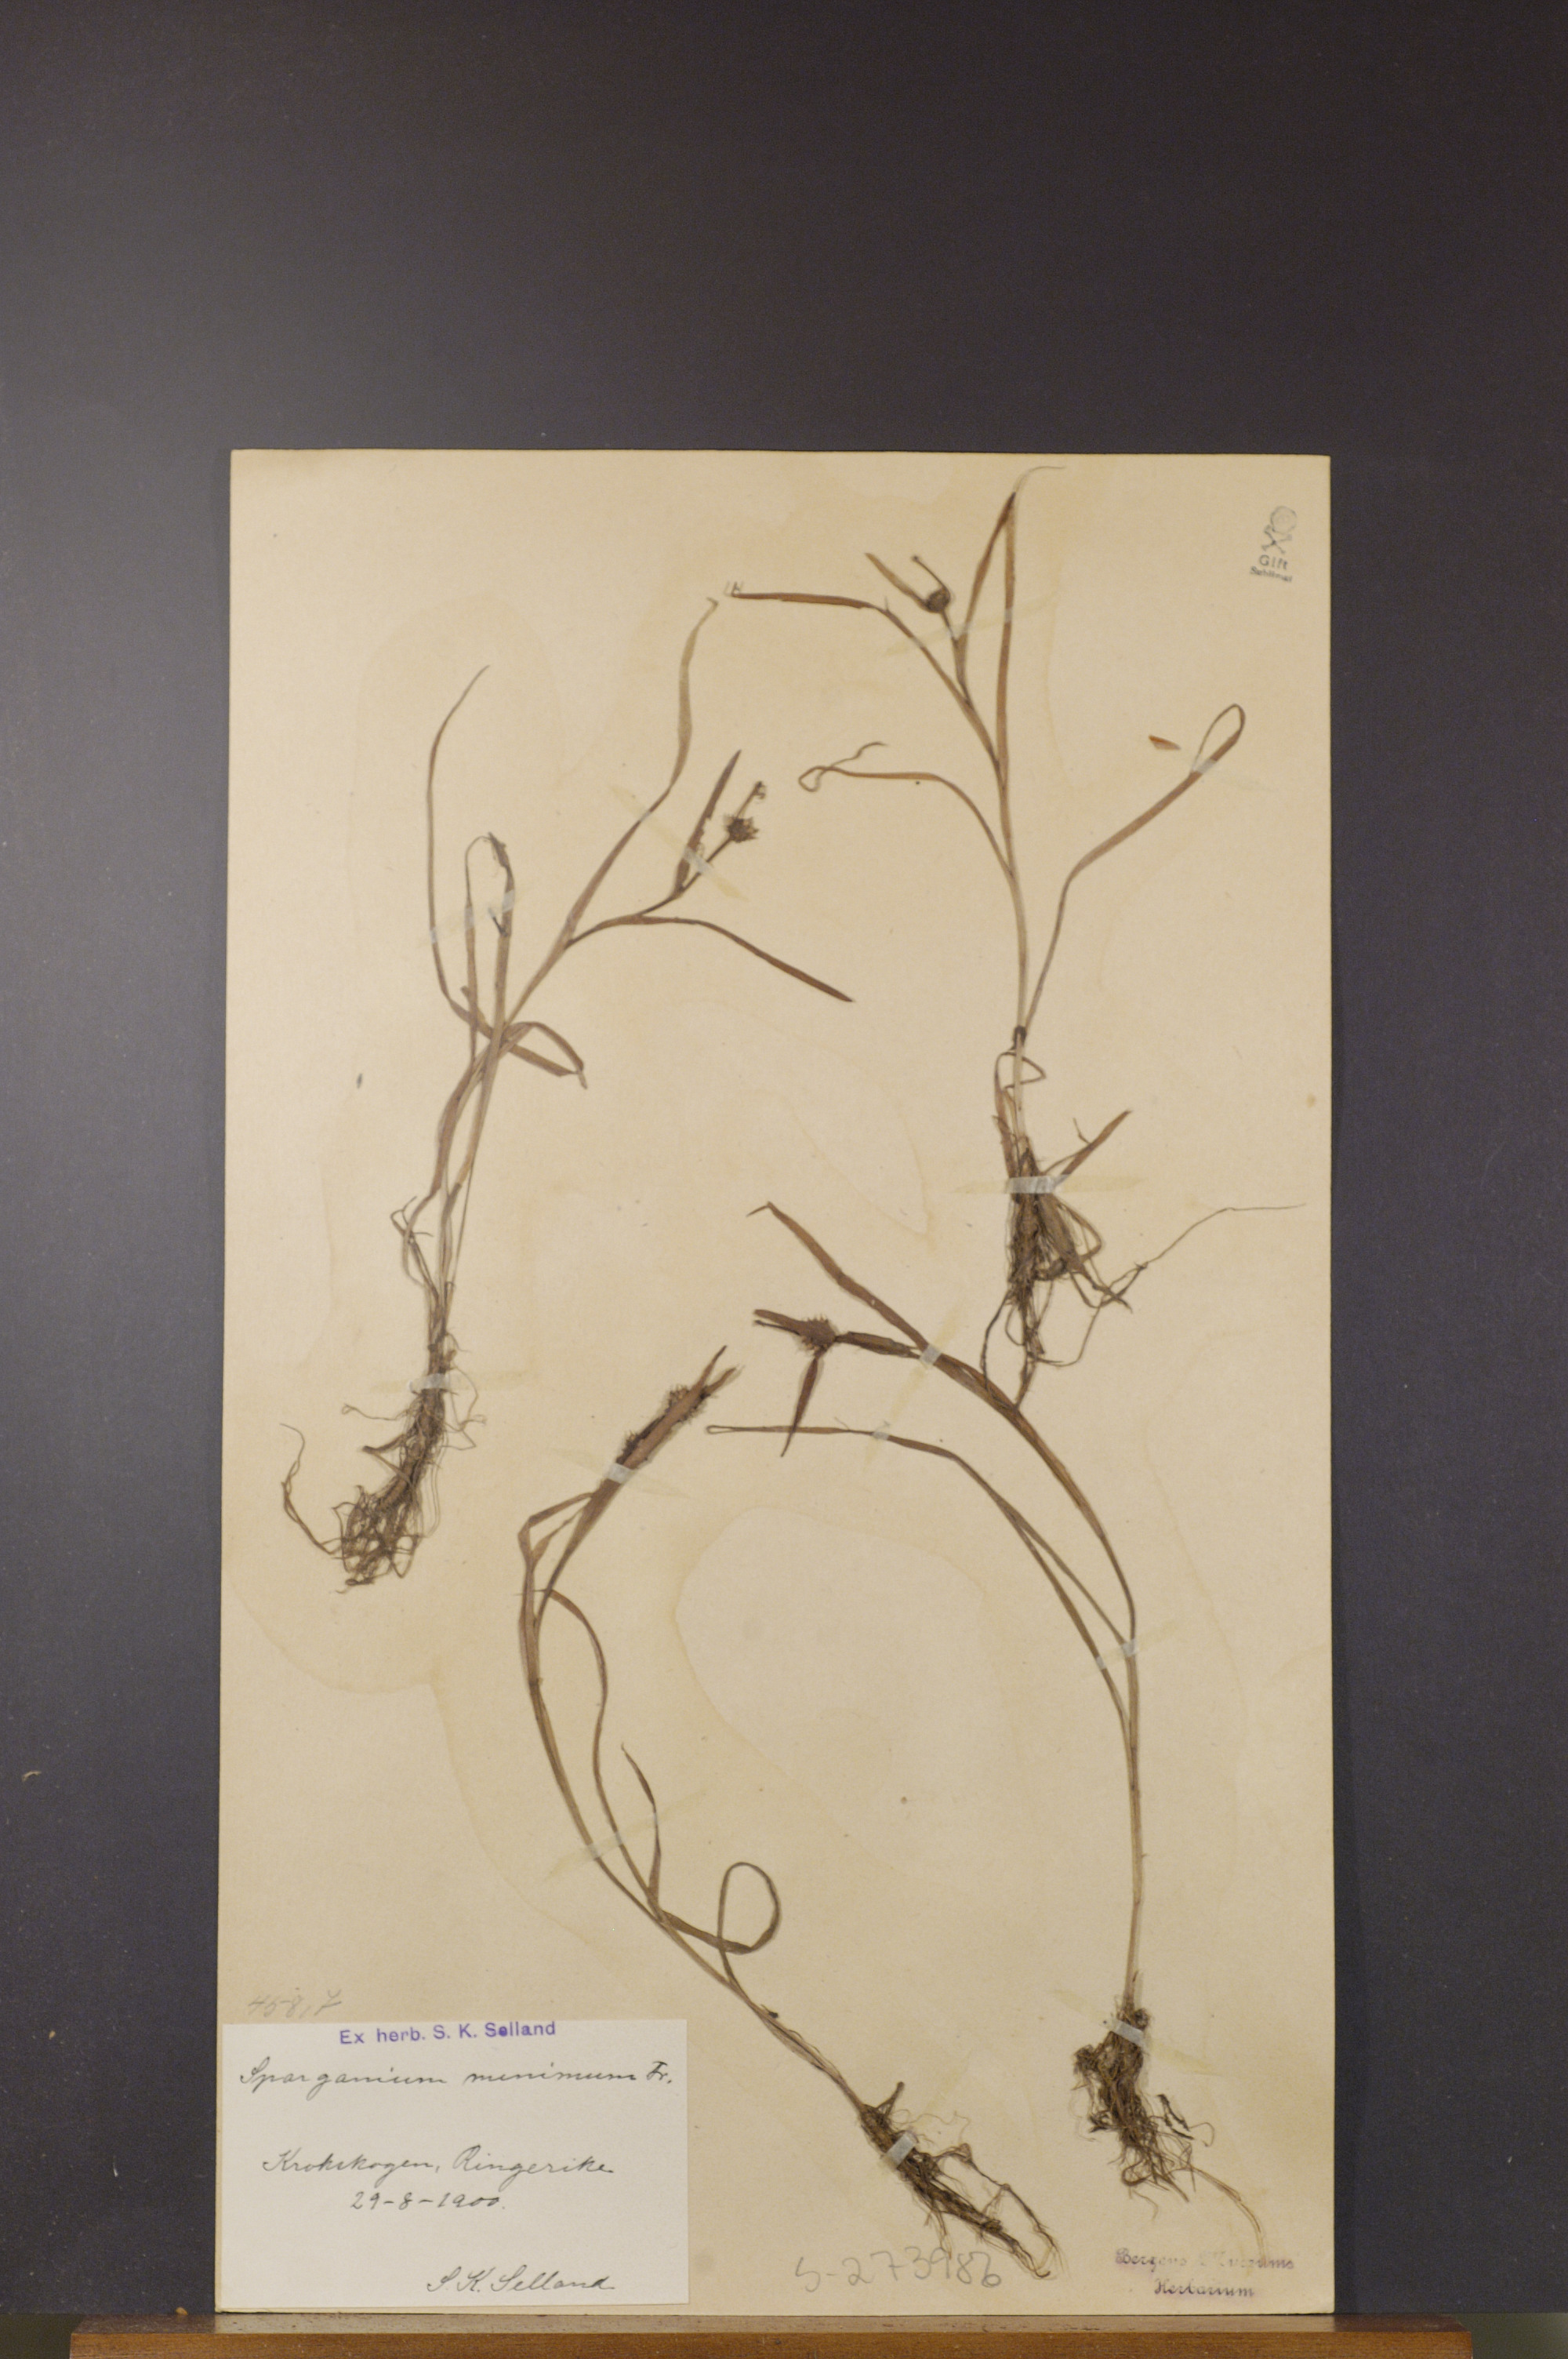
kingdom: Plantae
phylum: Tracheophyta
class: Liliopsida
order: Poales
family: Typhaceae
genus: Sparganium
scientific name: Sparganium natans
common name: Least bur-reed
